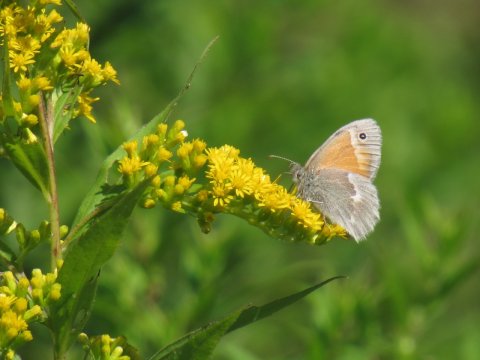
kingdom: Animalia
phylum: Arthropoda
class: Insecta
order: Lepidoptera
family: Nymphalidae
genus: Coenonympha
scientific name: Coenonympha tullia
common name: Large Heath
